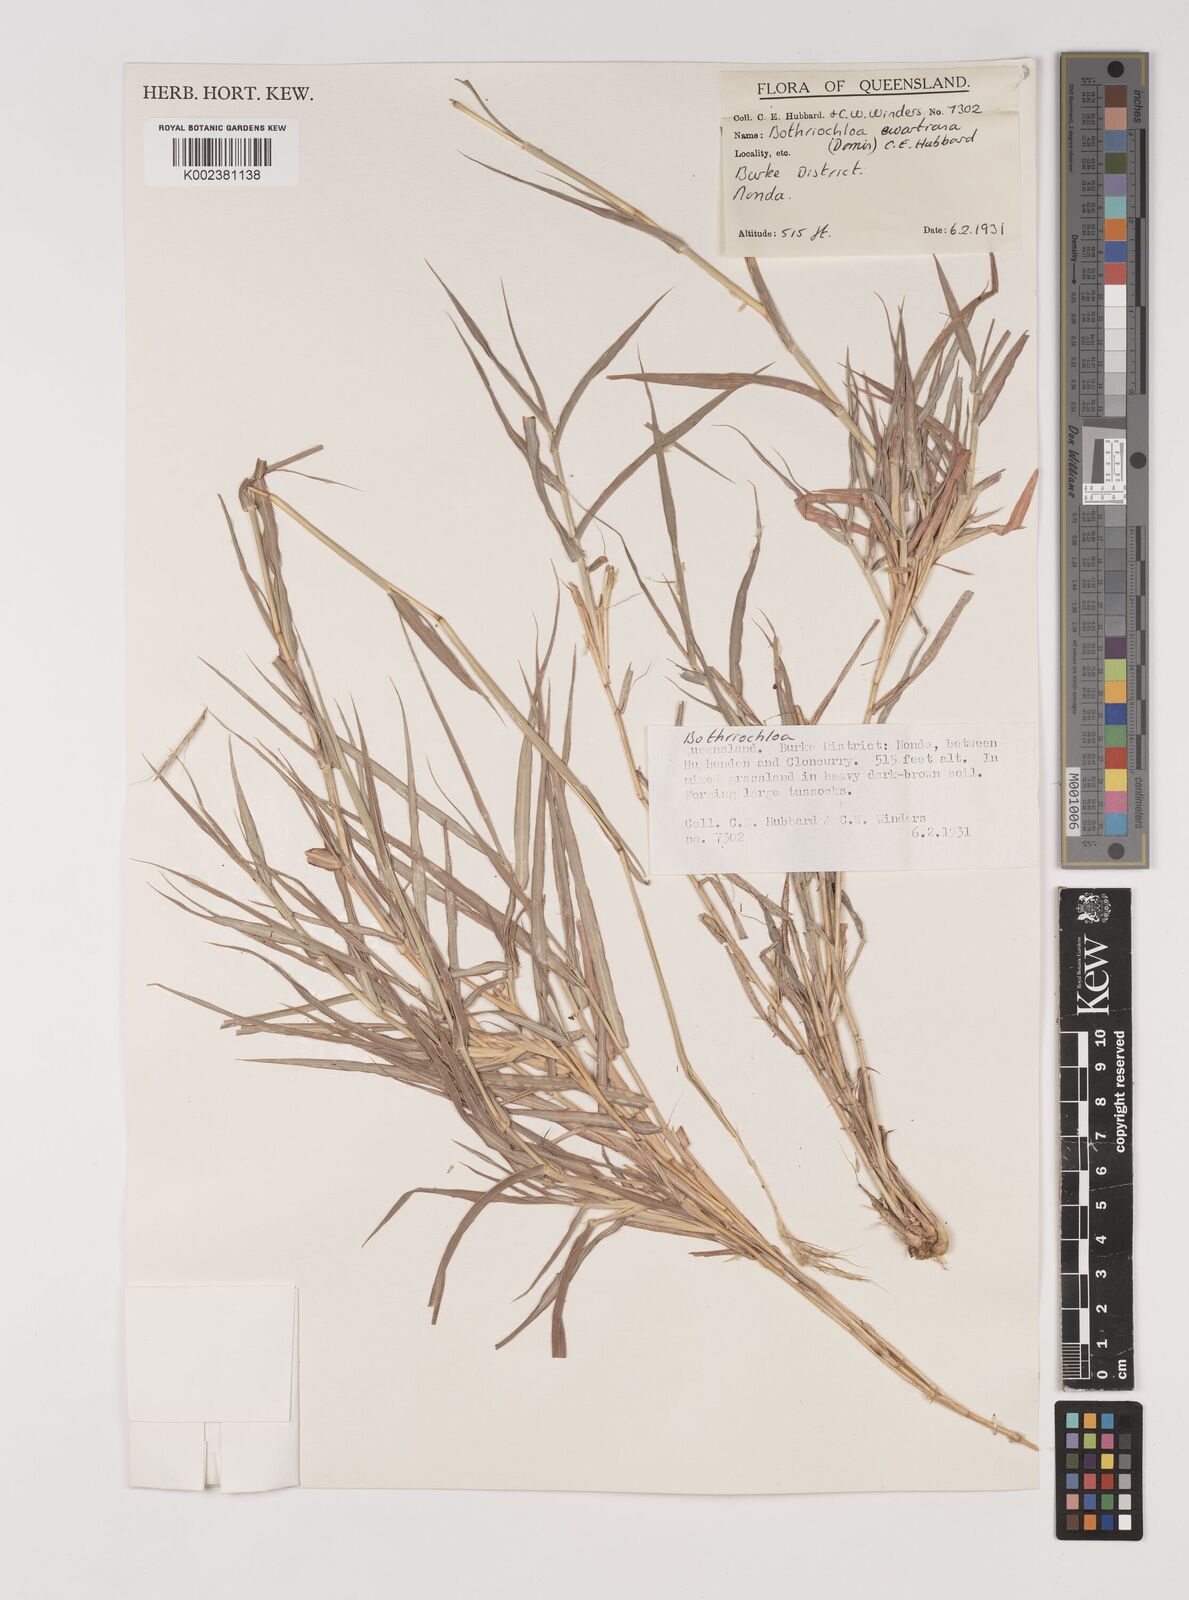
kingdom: Plantae
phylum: Tracheophyta
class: Liliopsida
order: Poales
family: Poaceae
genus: Bothriochloa
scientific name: Bothriochloa ewartiana
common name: Desert-bluegrass
